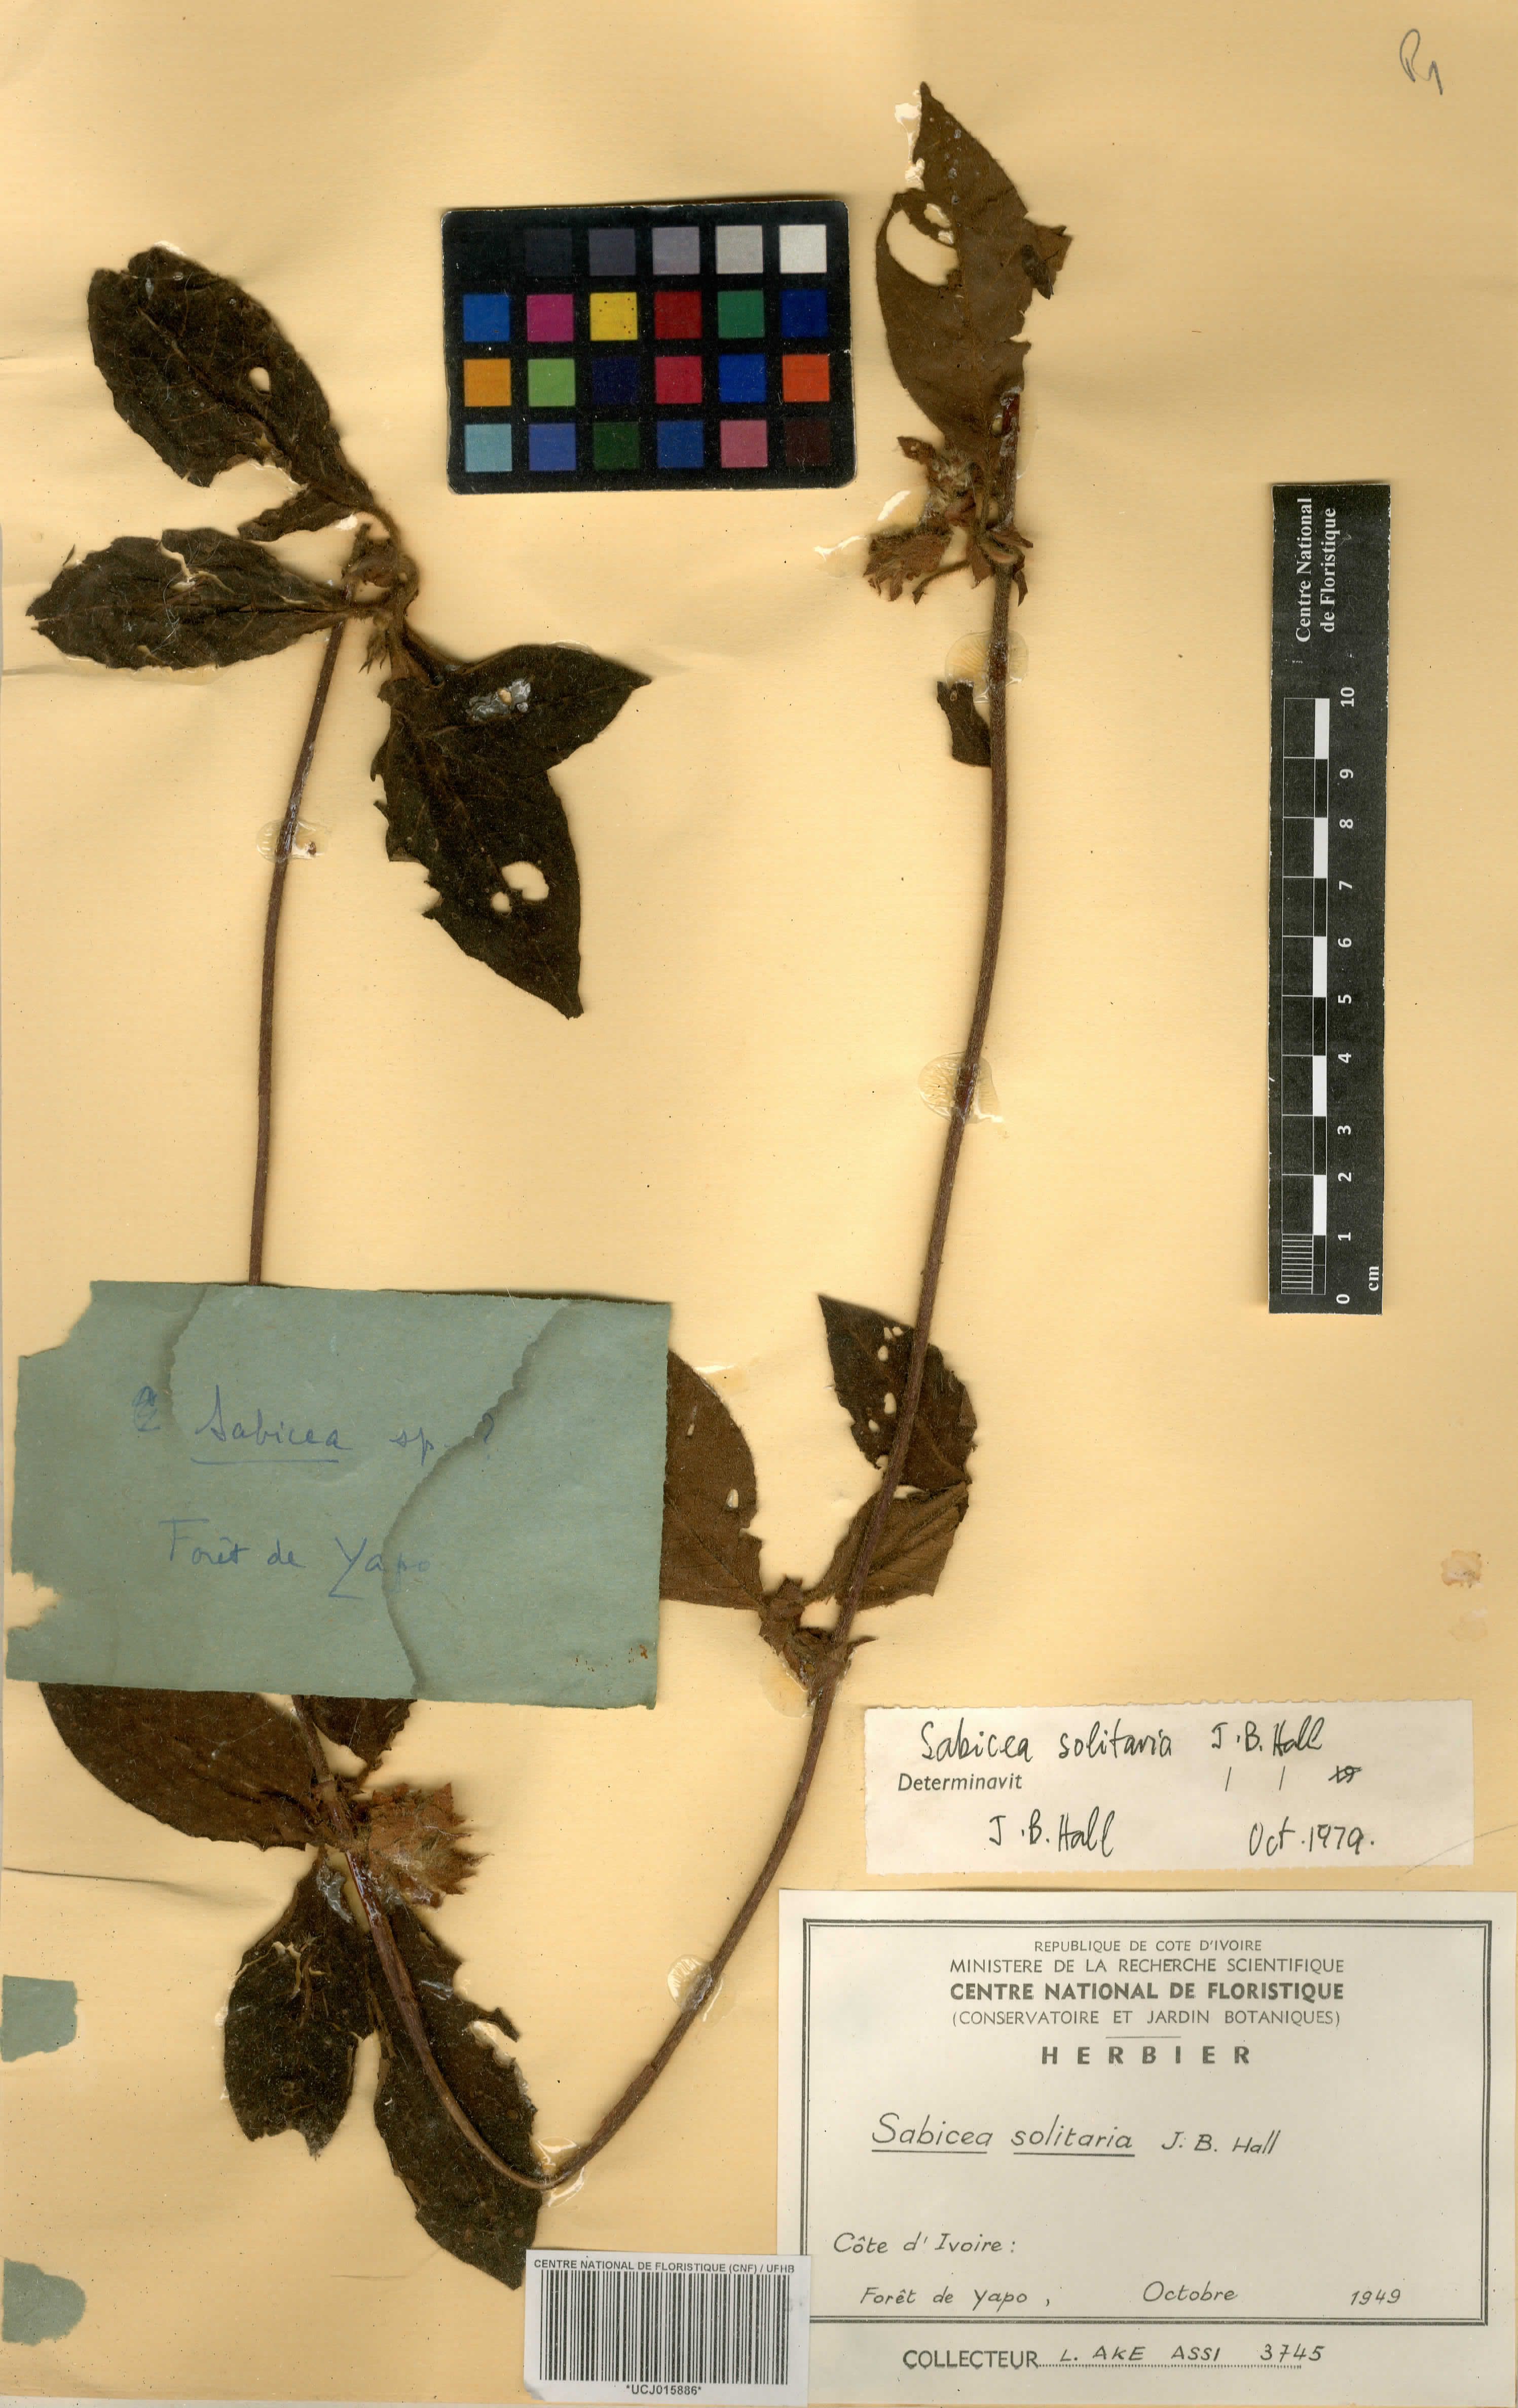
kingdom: Plantae
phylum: Tracheophyta
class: Magnoliopsida
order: Gentianales
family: Rubiaceae
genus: Sabicea
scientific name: Sabicea solitaria
